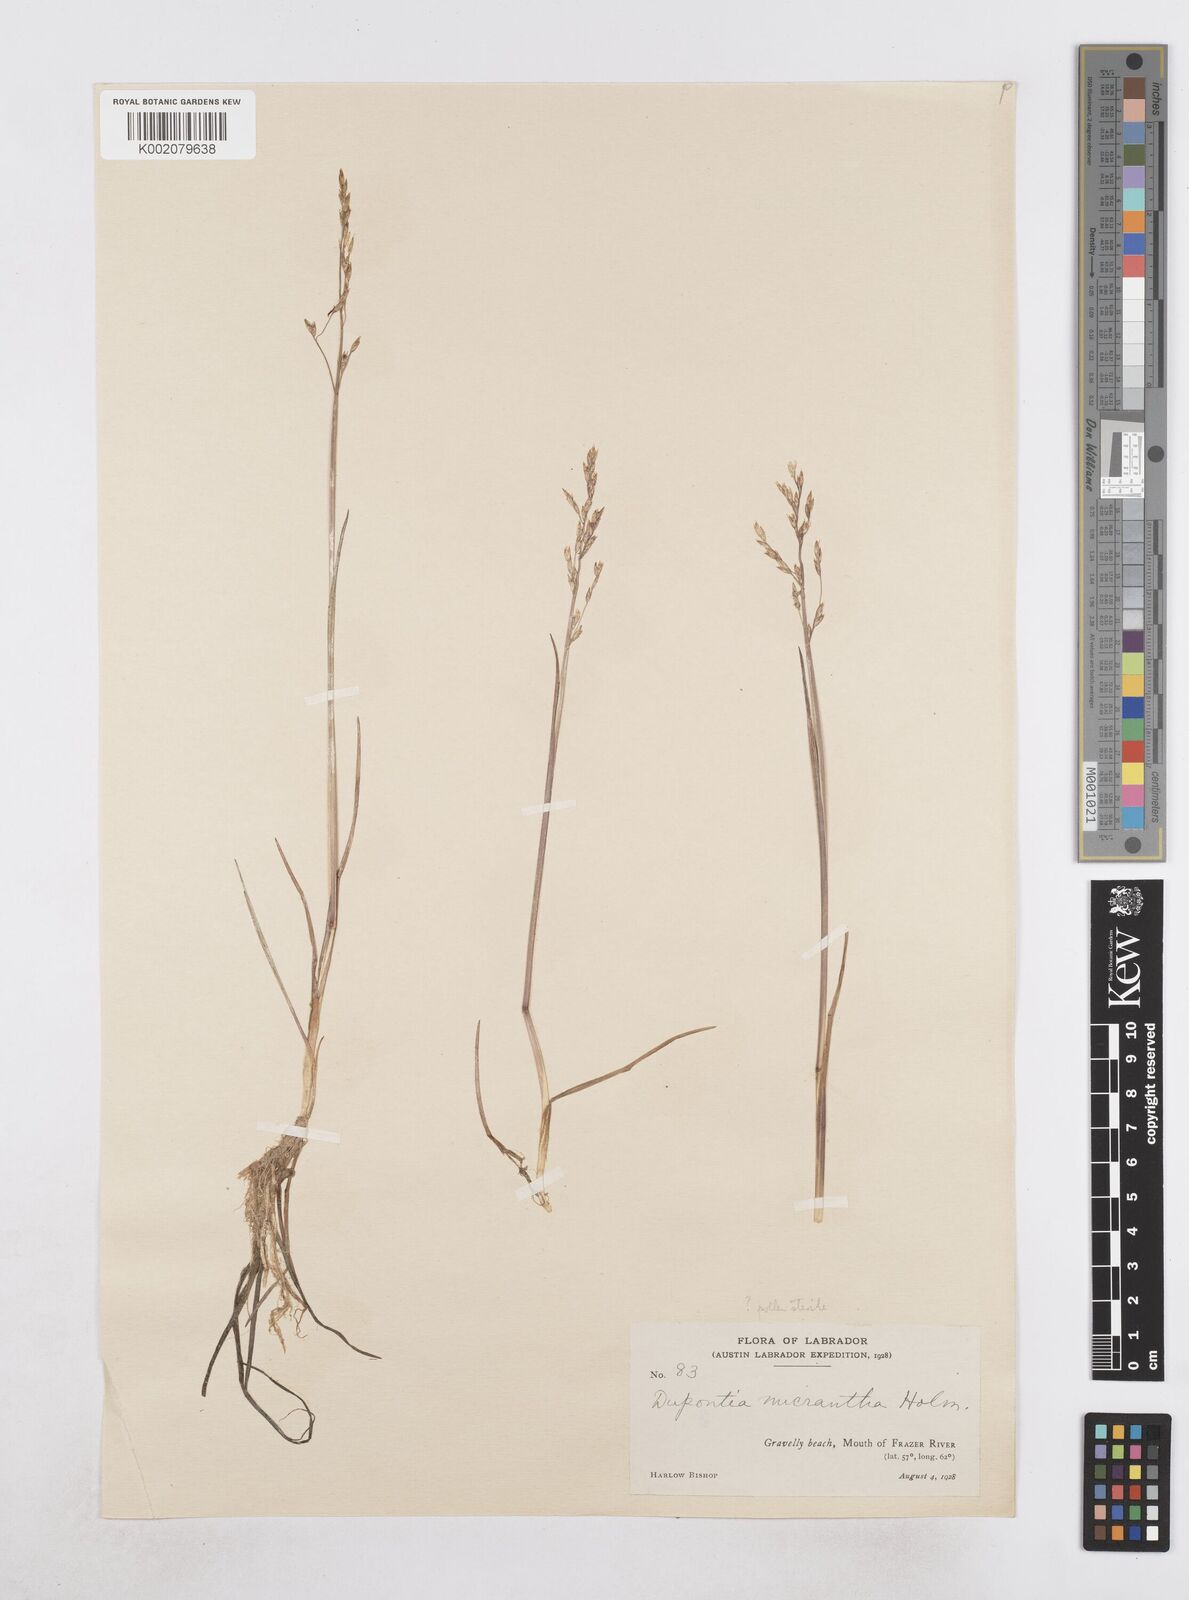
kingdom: Plantae
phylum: Tracheophyta
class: Liliopsida
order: Poales
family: Poaceae
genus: Dupontia
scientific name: Dupontia fisheri
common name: Tundra grass
